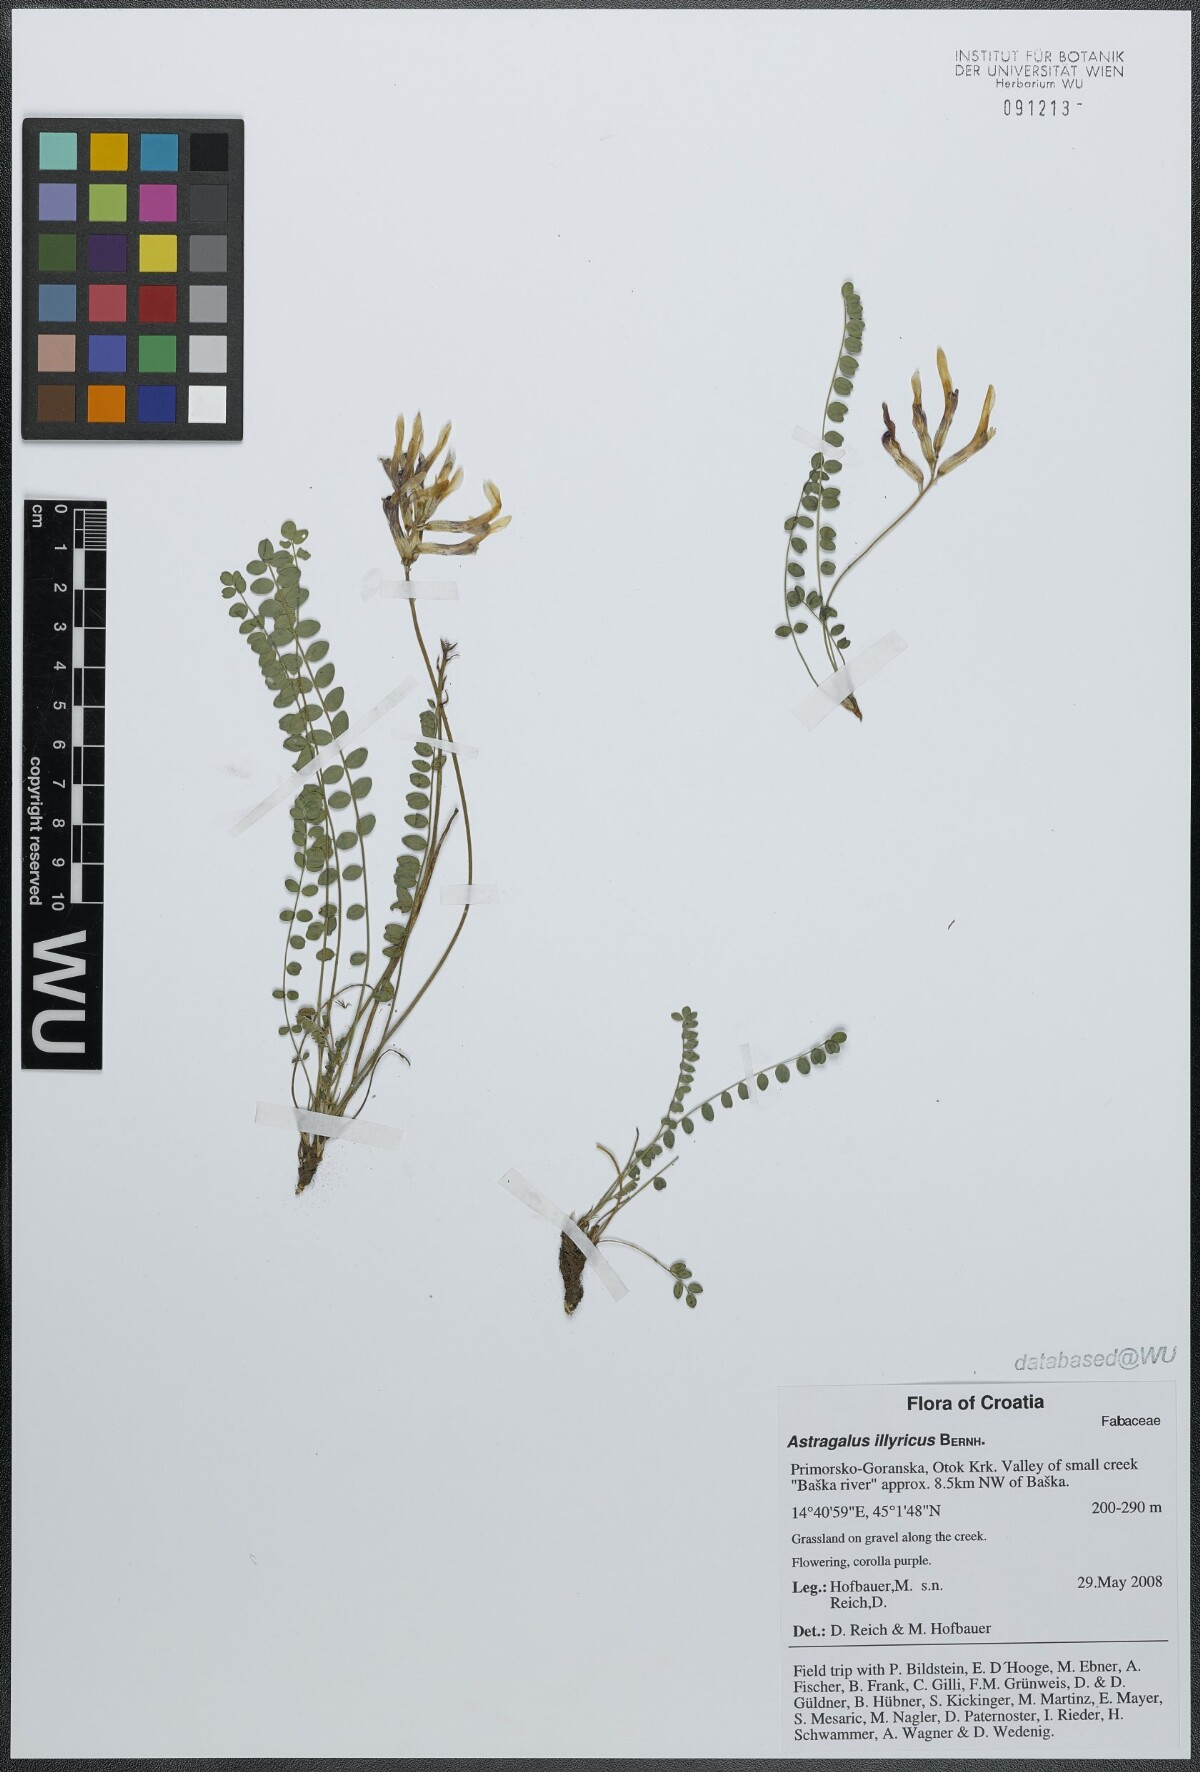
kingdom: Plantae
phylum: Tracheophyta
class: Magnoliopsida
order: Fabales
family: Fabaceae
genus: Astragalus
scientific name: Astragalus monspessulanus
